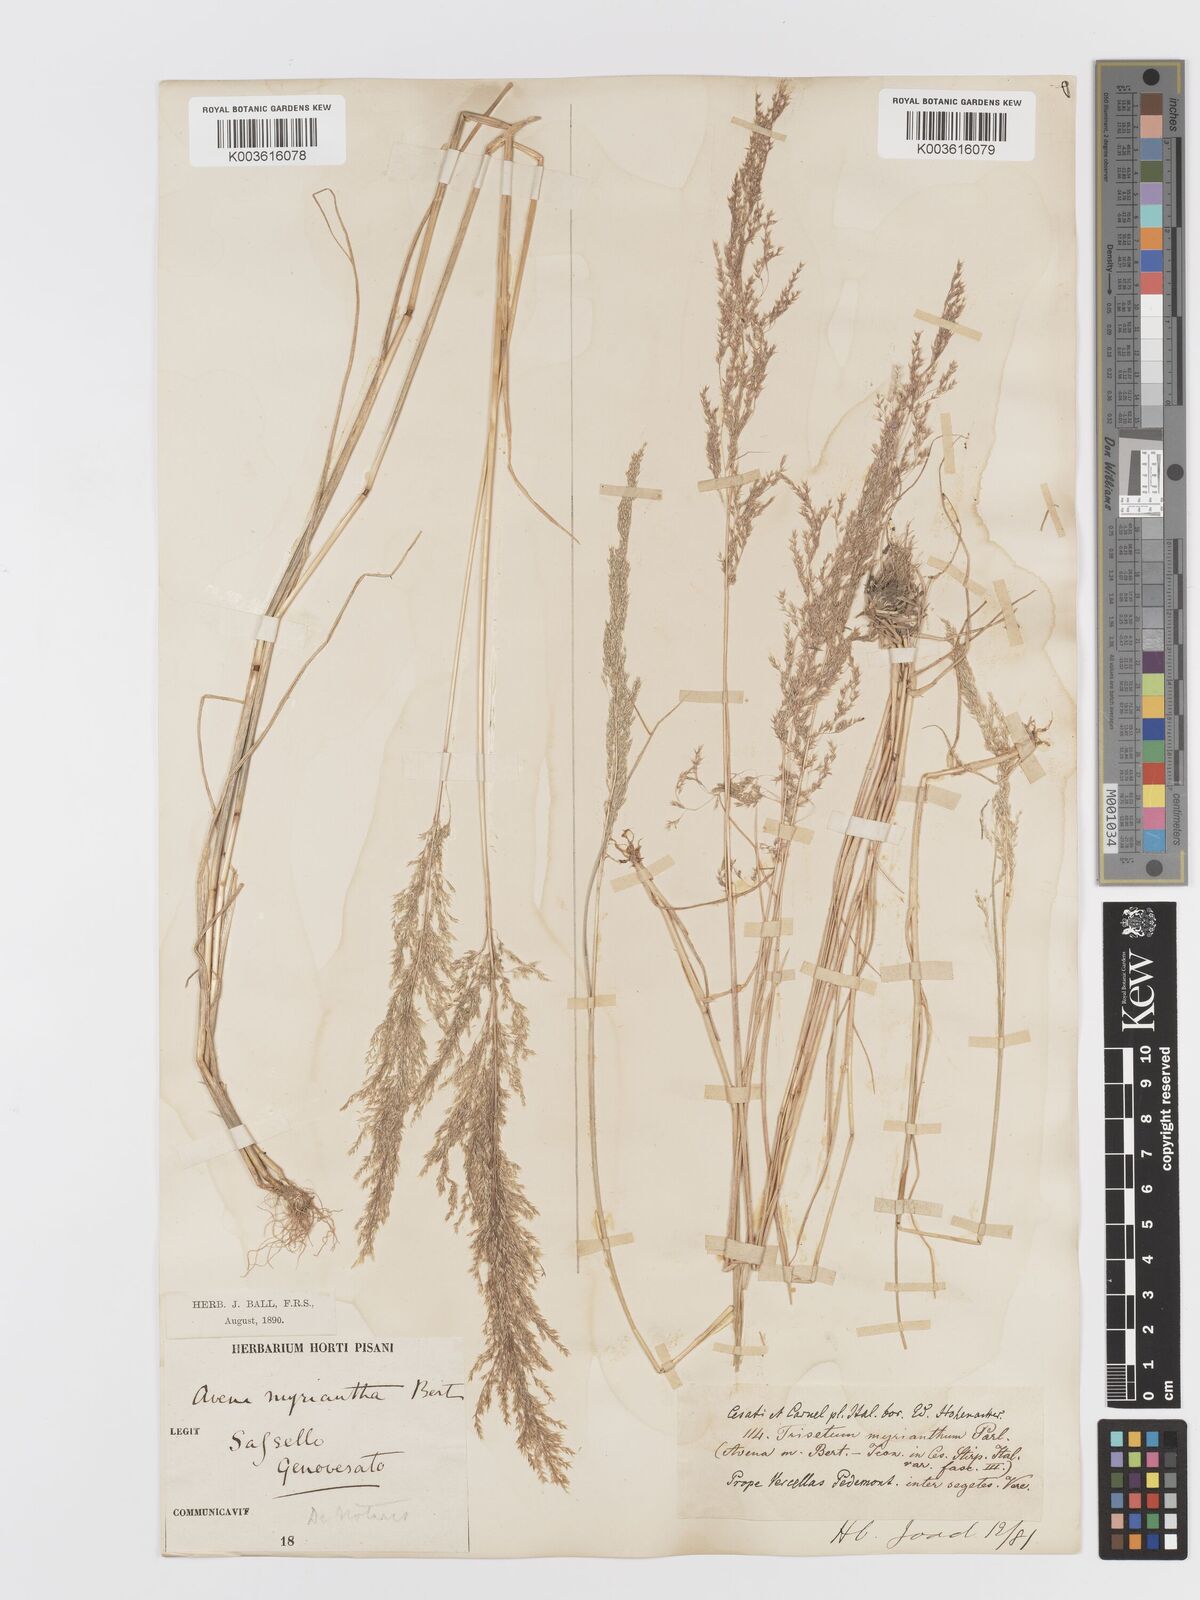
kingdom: Plantae
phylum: Tracheophyta
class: Liliopsida
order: Poales
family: Poaceae
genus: Parvotrisetum
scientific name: Parvotrisetum myrianthum
